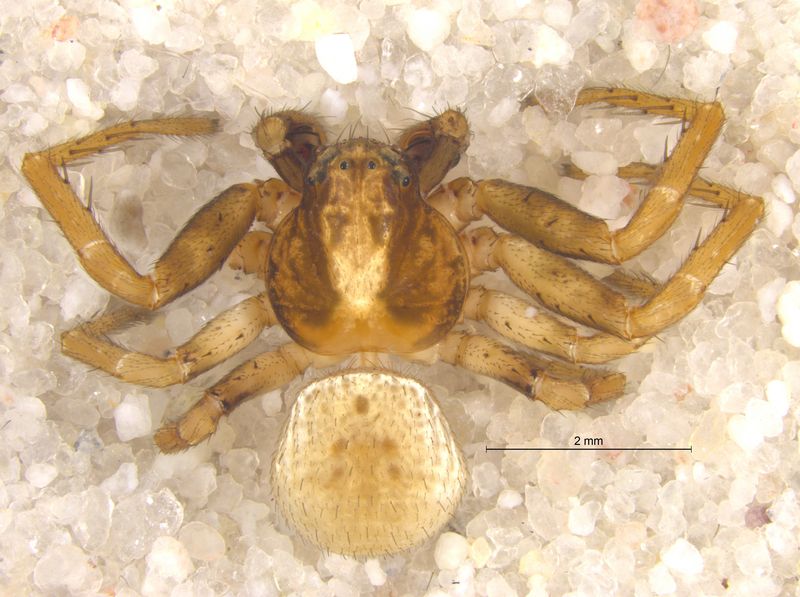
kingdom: Animalia
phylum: Arthropoda
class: Arachnida
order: Araneae
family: Thomisidae
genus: Ozyptila
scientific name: Ozyptila simplex
